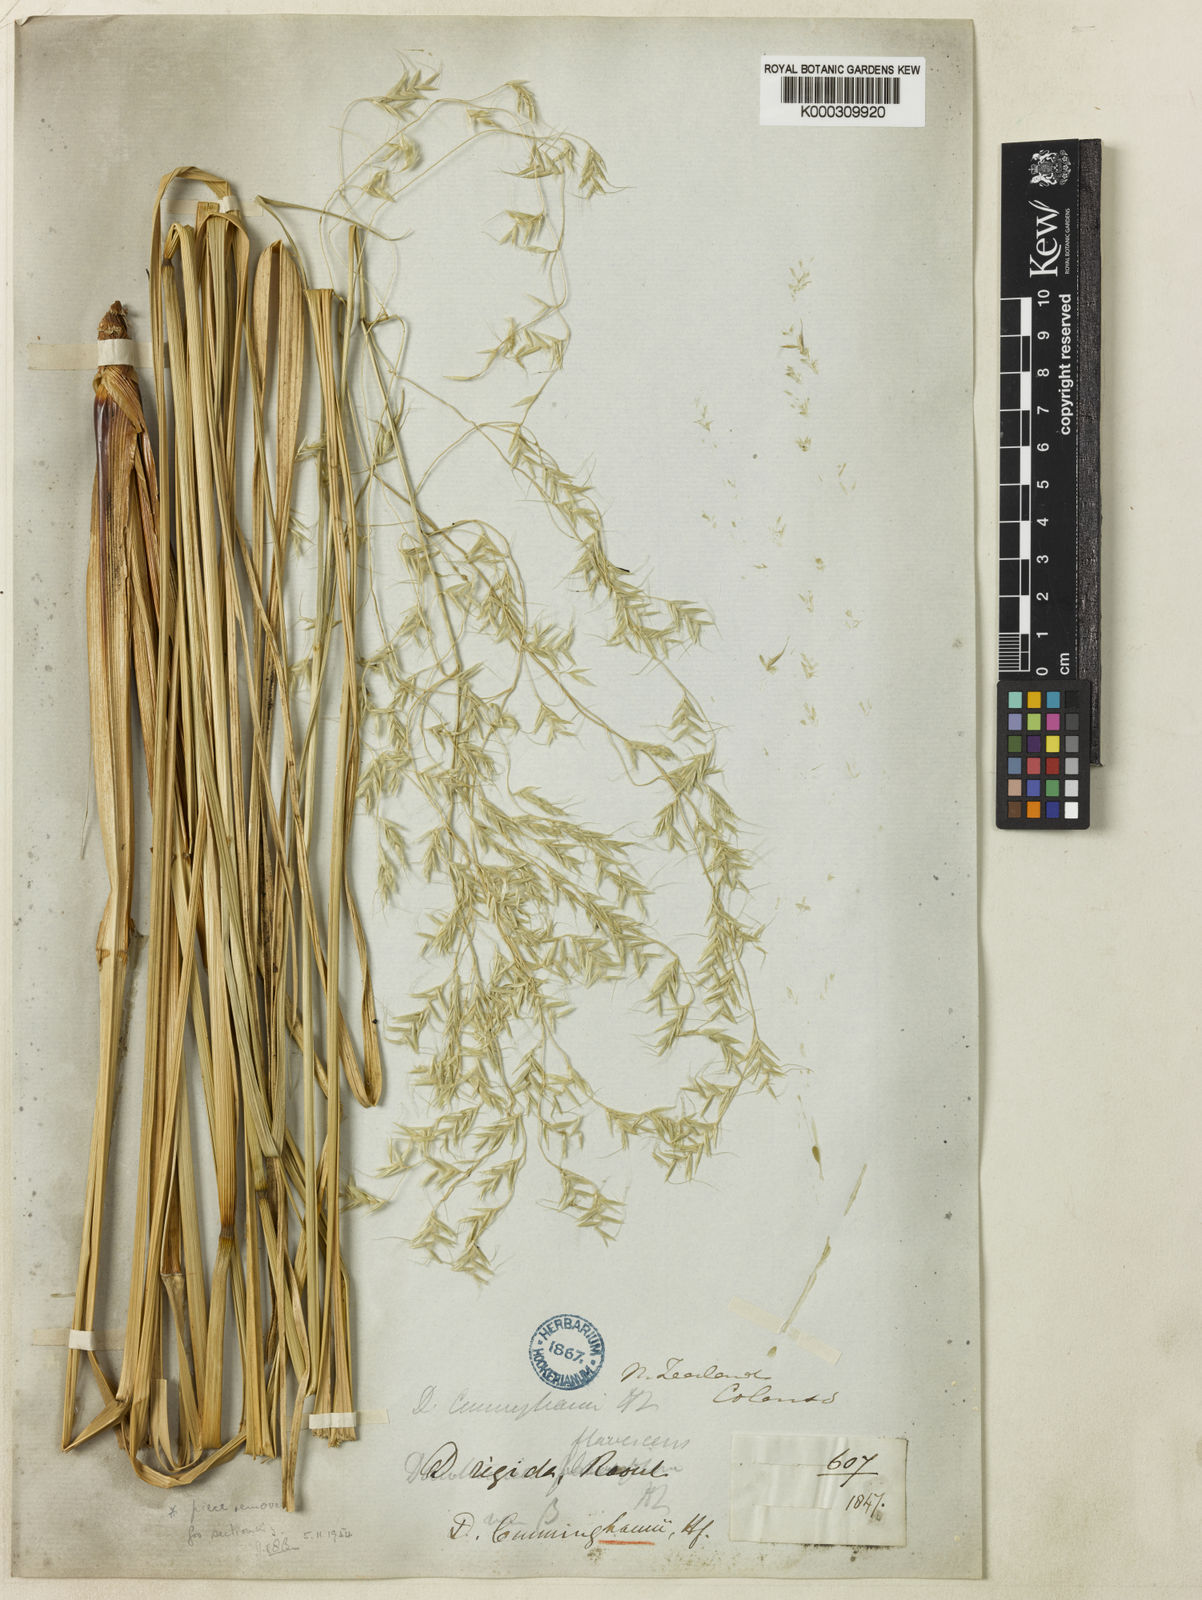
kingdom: Plantae
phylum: Tracheophyta
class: Liliopsida
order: Poales
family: Poaceae
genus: Chionochloa
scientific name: Chionochloa conspicua
